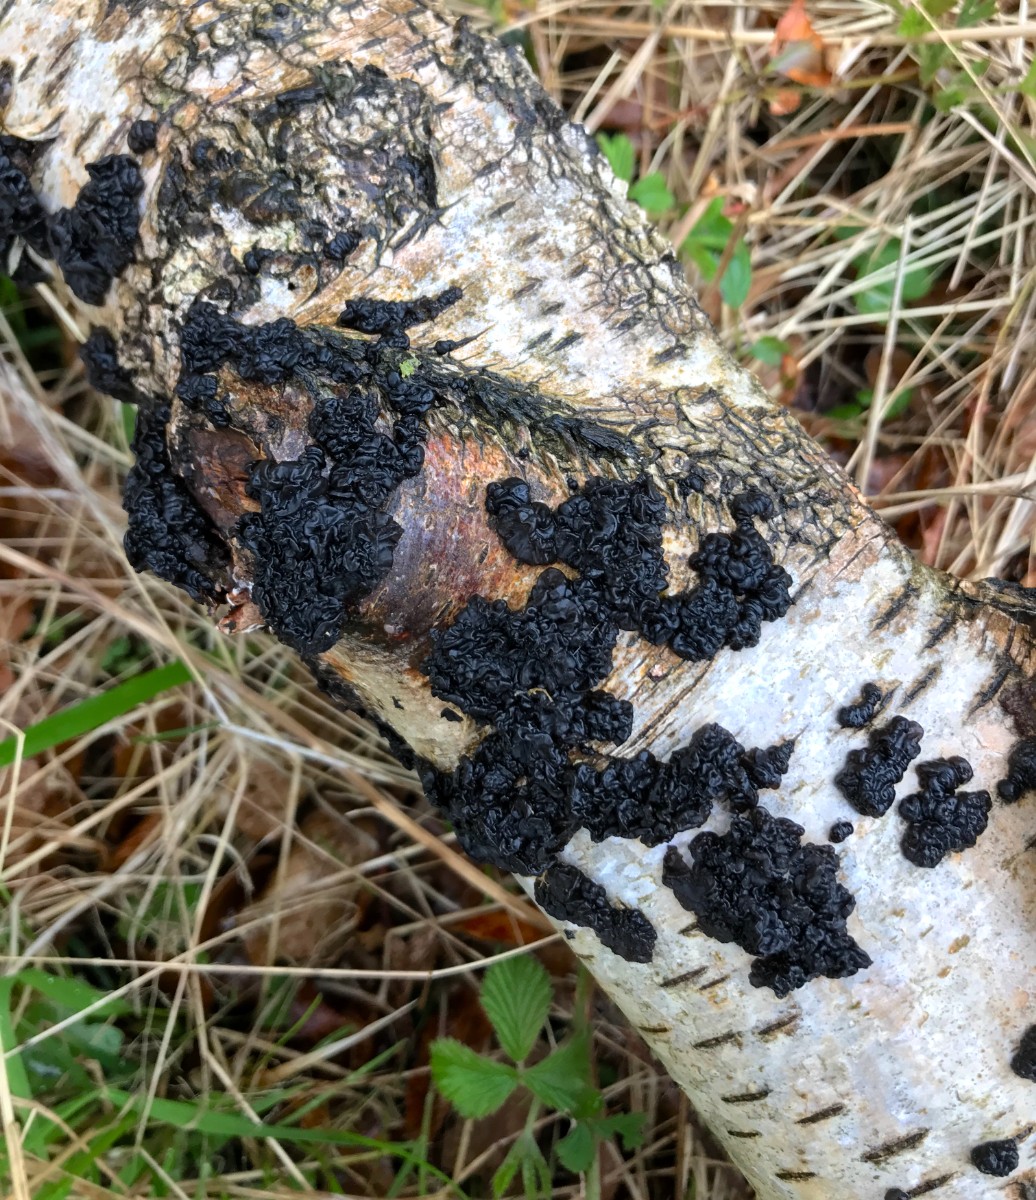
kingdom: Fungi
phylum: Basidiomycota
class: Agaricomycetes
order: Auriculariales
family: Auriculariaceae
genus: Exidia
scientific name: Exidia nigricans
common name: almindelig bævretop
